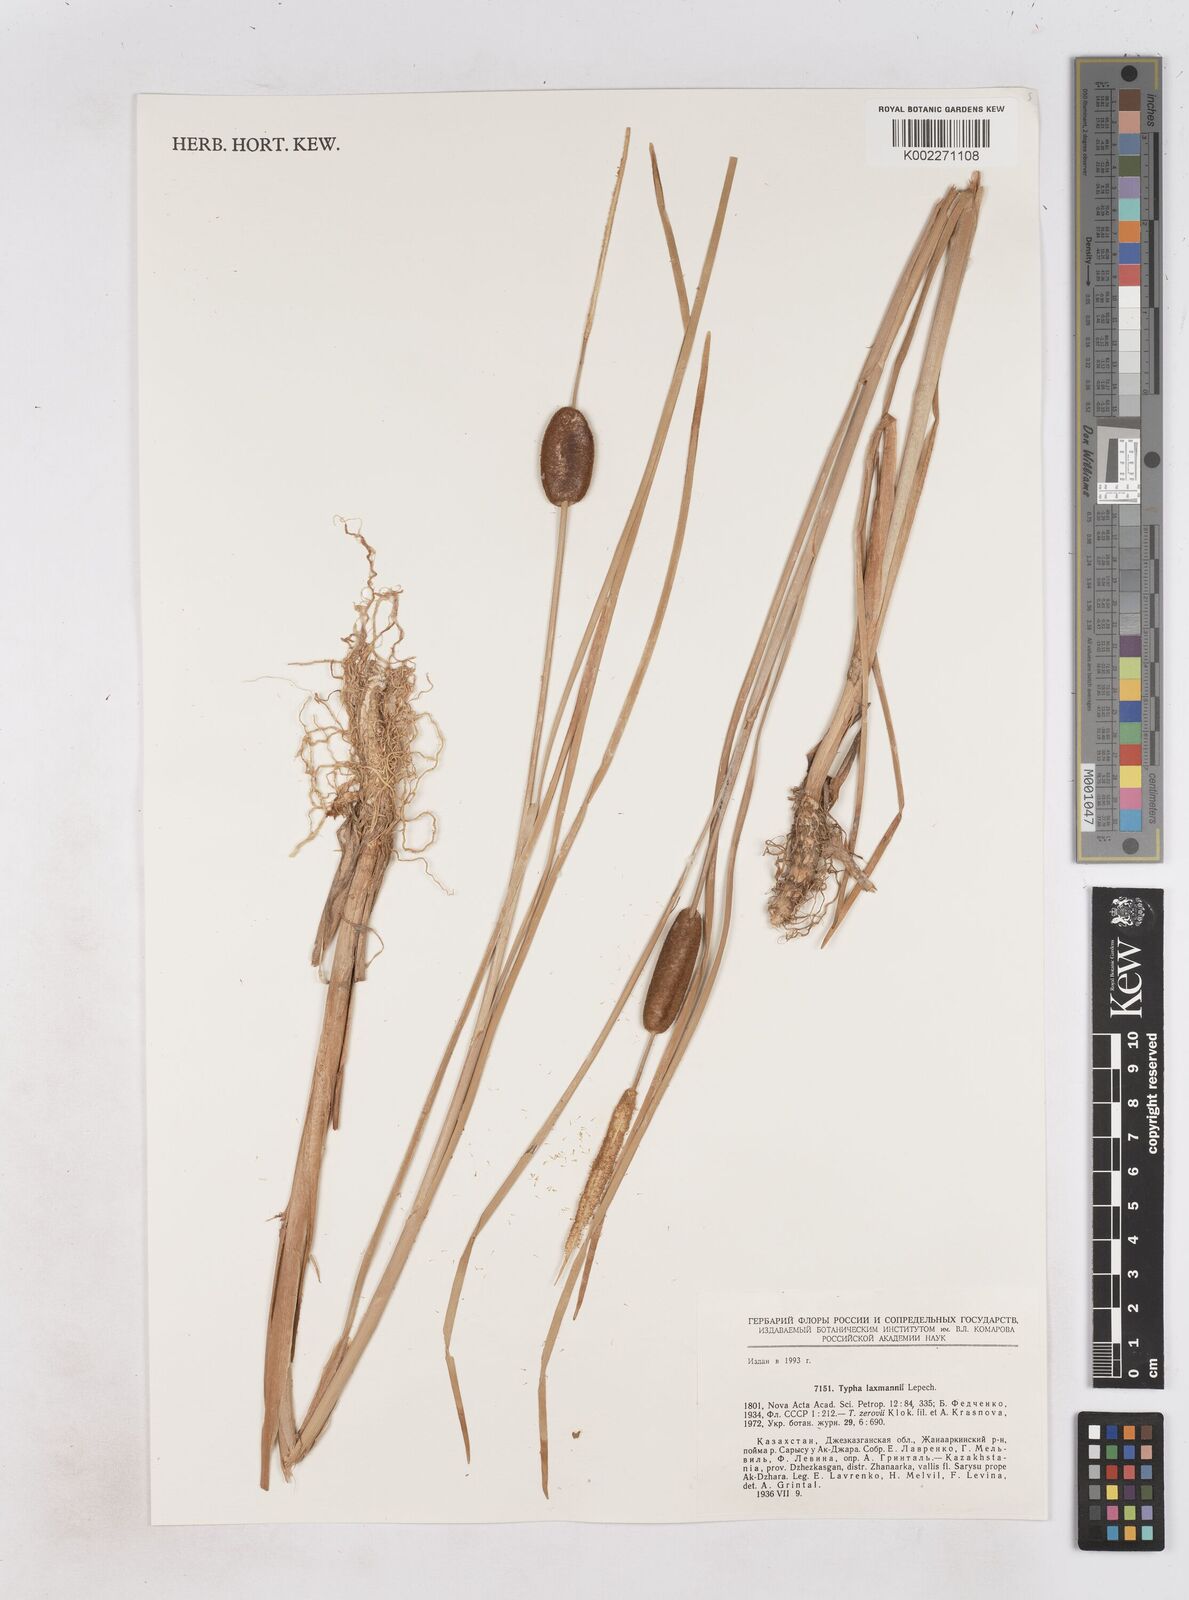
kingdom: Plantae
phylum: Tracheophyta
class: Liliopsida
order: Poales
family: Typhaceae
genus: Typha
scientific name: Typha laxmannii
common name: Laxman’s bulrush
